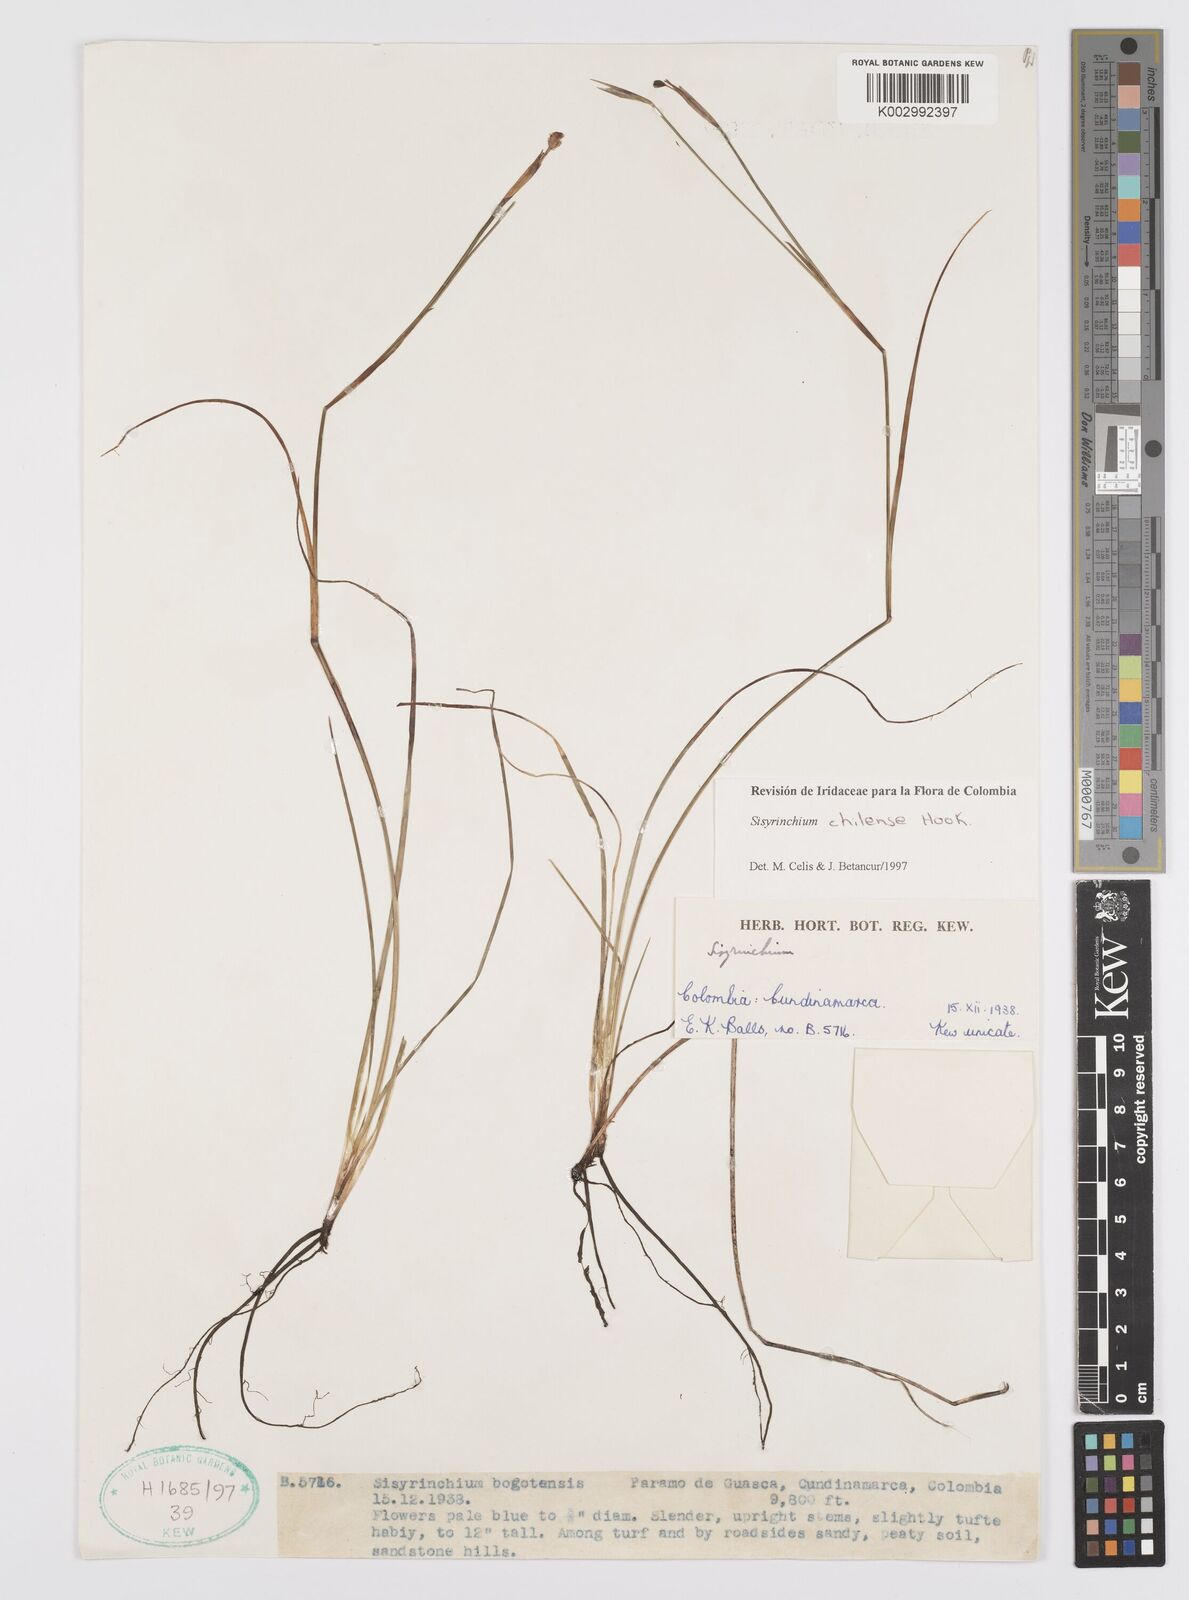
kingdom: Plantae
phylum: Tracheophyta
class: Liliopsida
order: Asparagales
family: Iridaceae
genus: Sisyrinchium
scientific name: Sisyrinchium chilense
